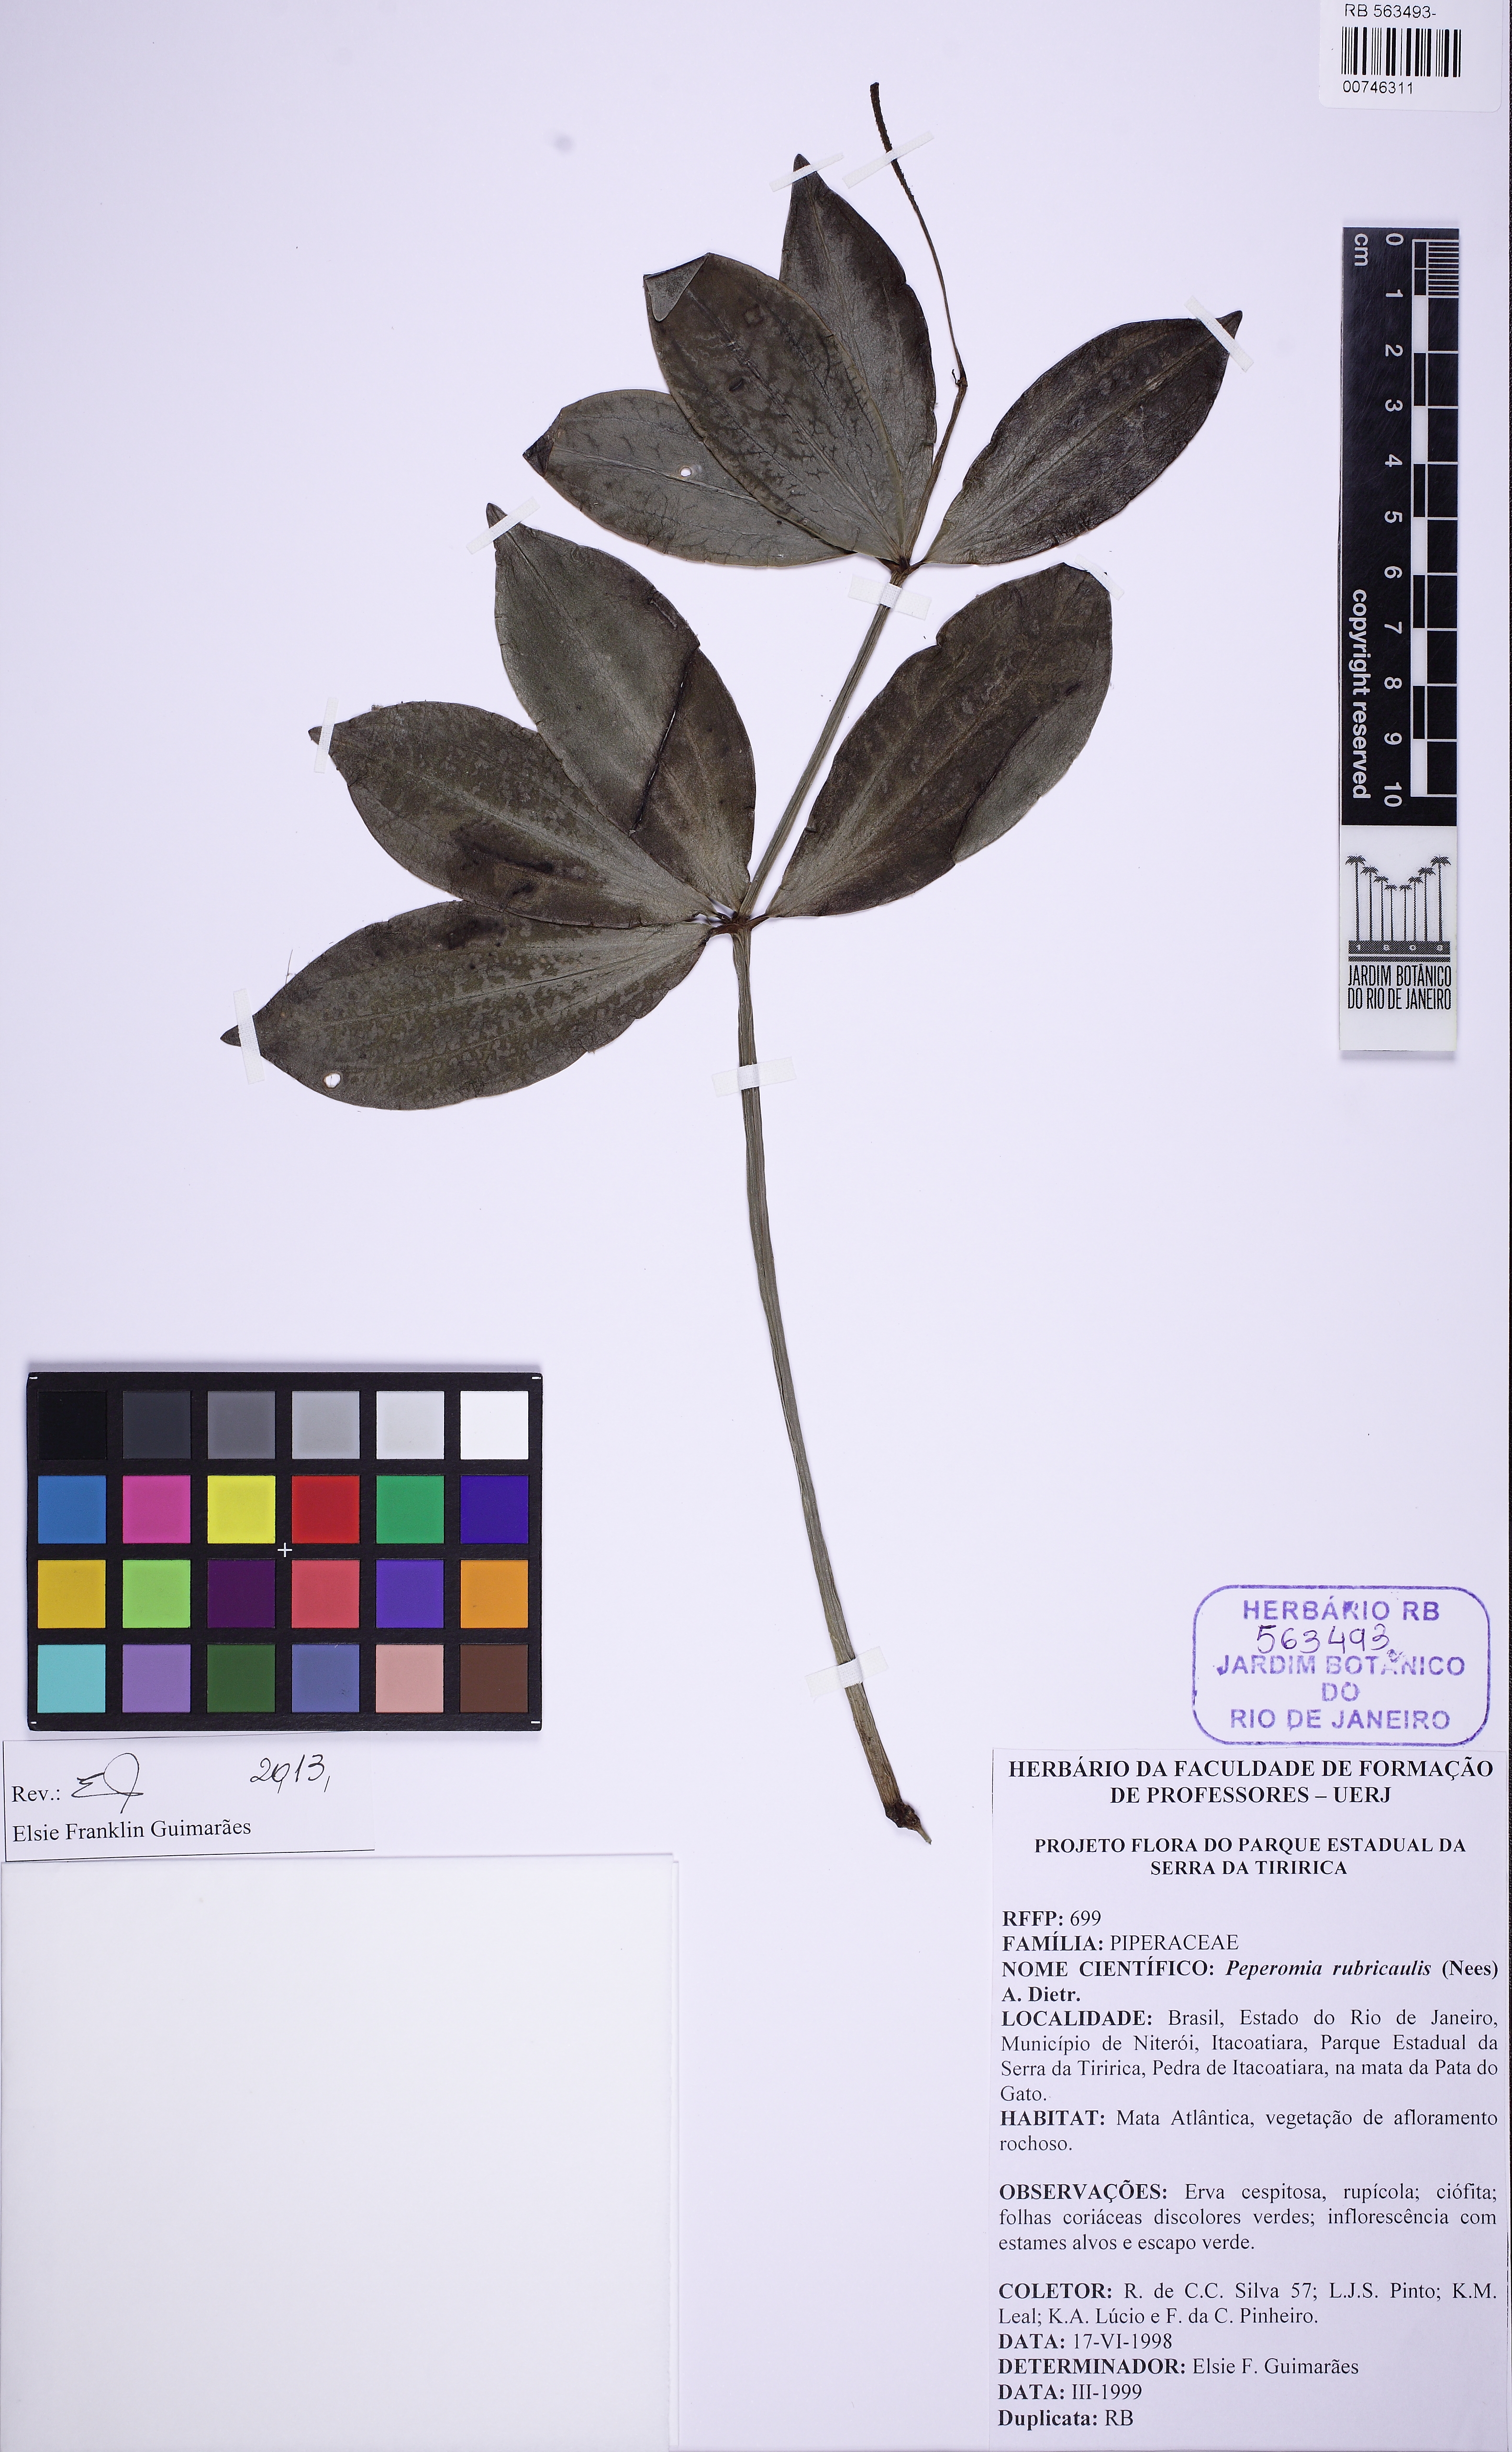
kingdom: Plantae
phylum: Tracheophyta
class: Magnoliopsida
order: Piperales
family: Piperaceae
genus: Peperomia
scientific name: Peperomia rubricaulis
